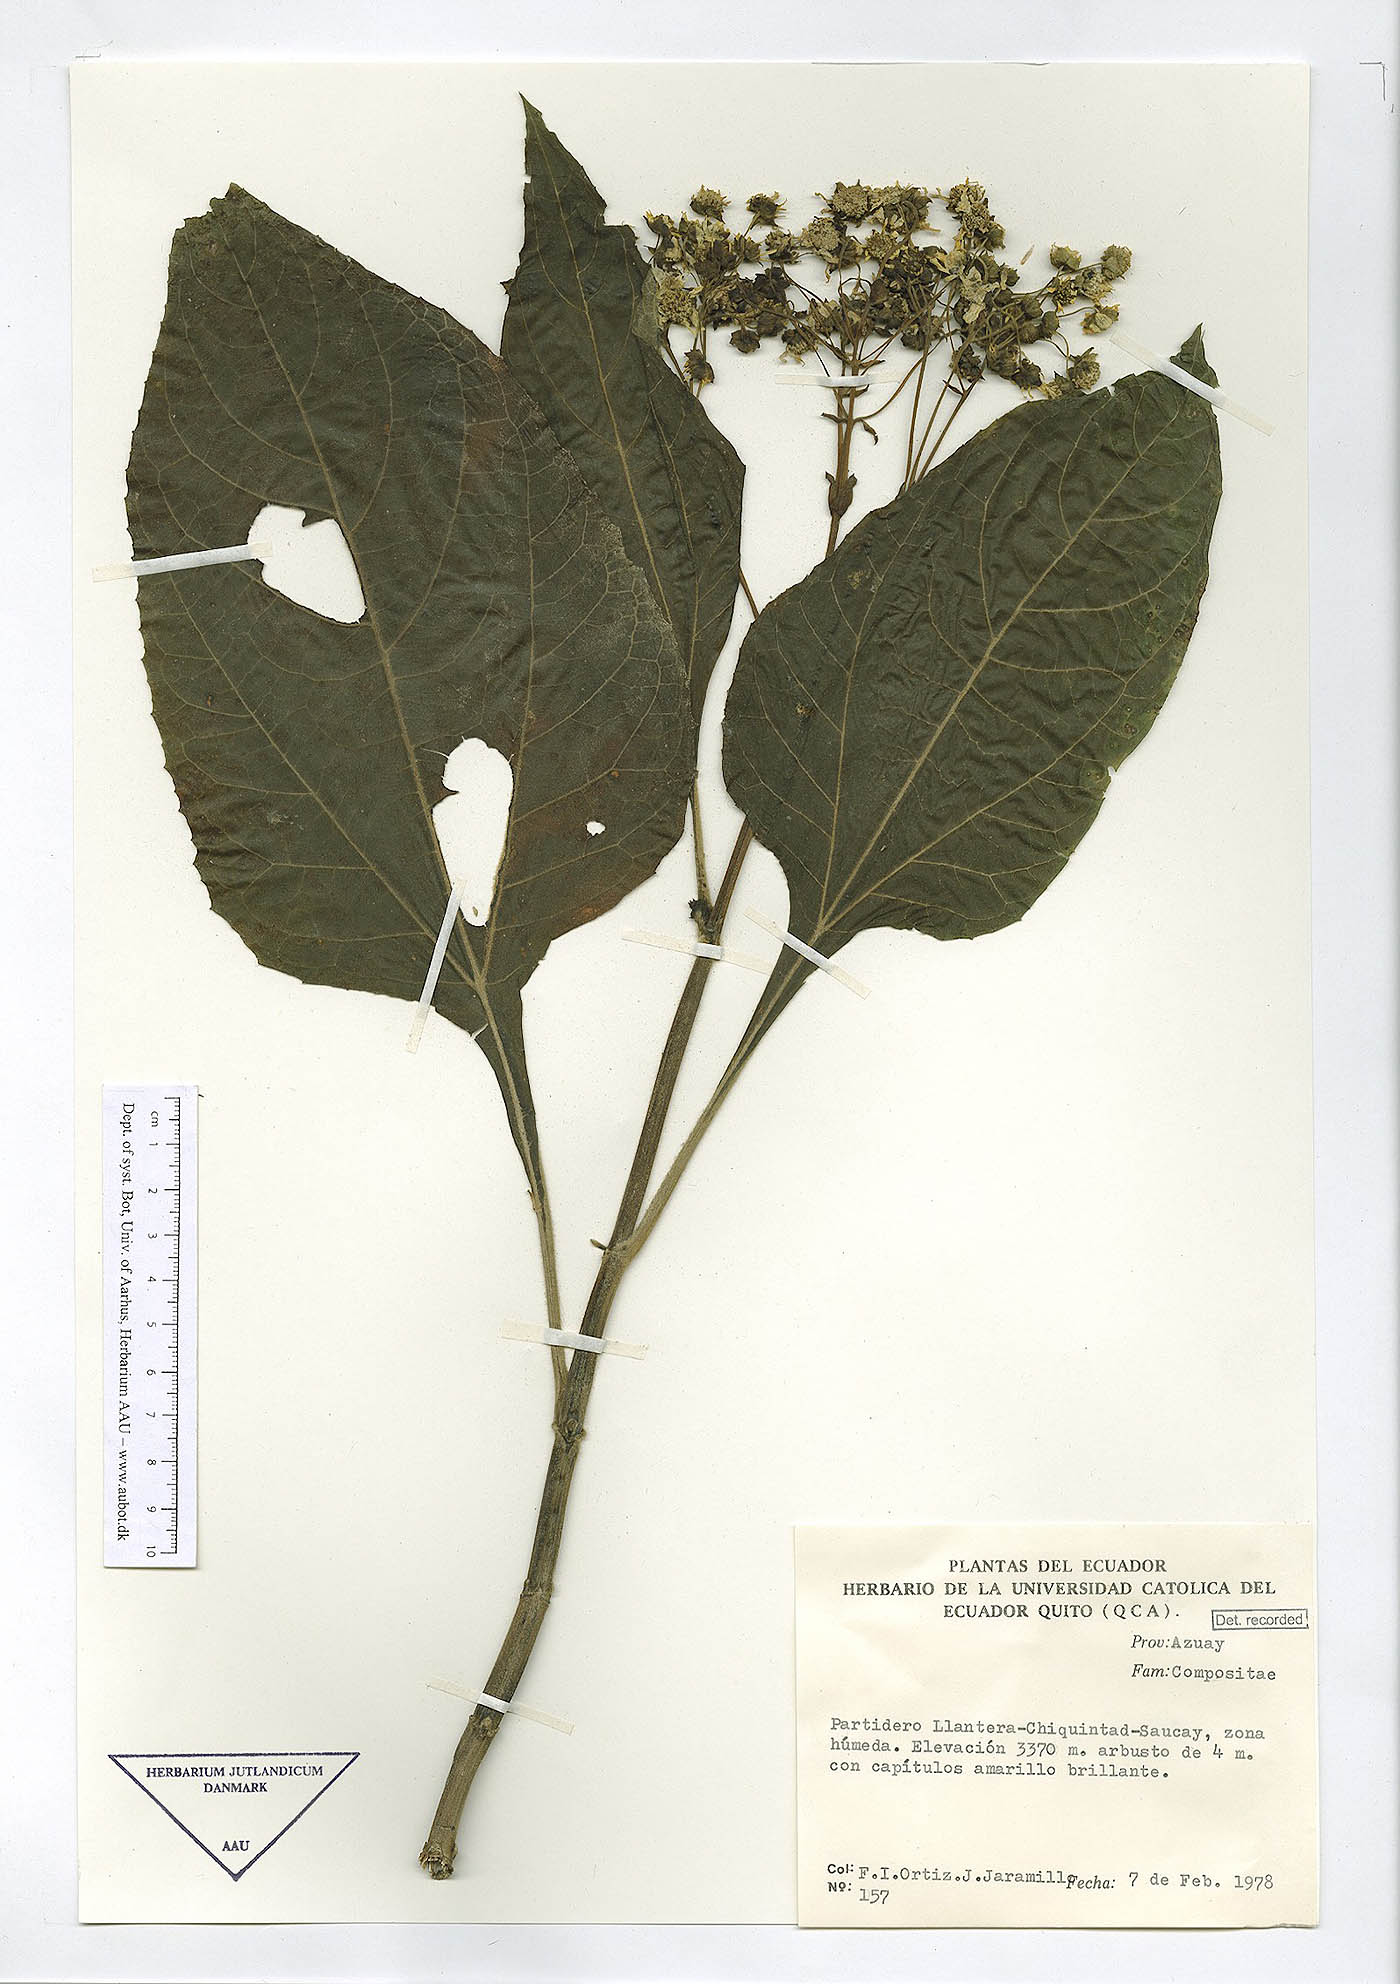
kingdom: Plantae
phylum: Tracheophyta
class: Magnoliopsida
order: Asterales
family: Asteraceae
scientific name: Asteraceae
